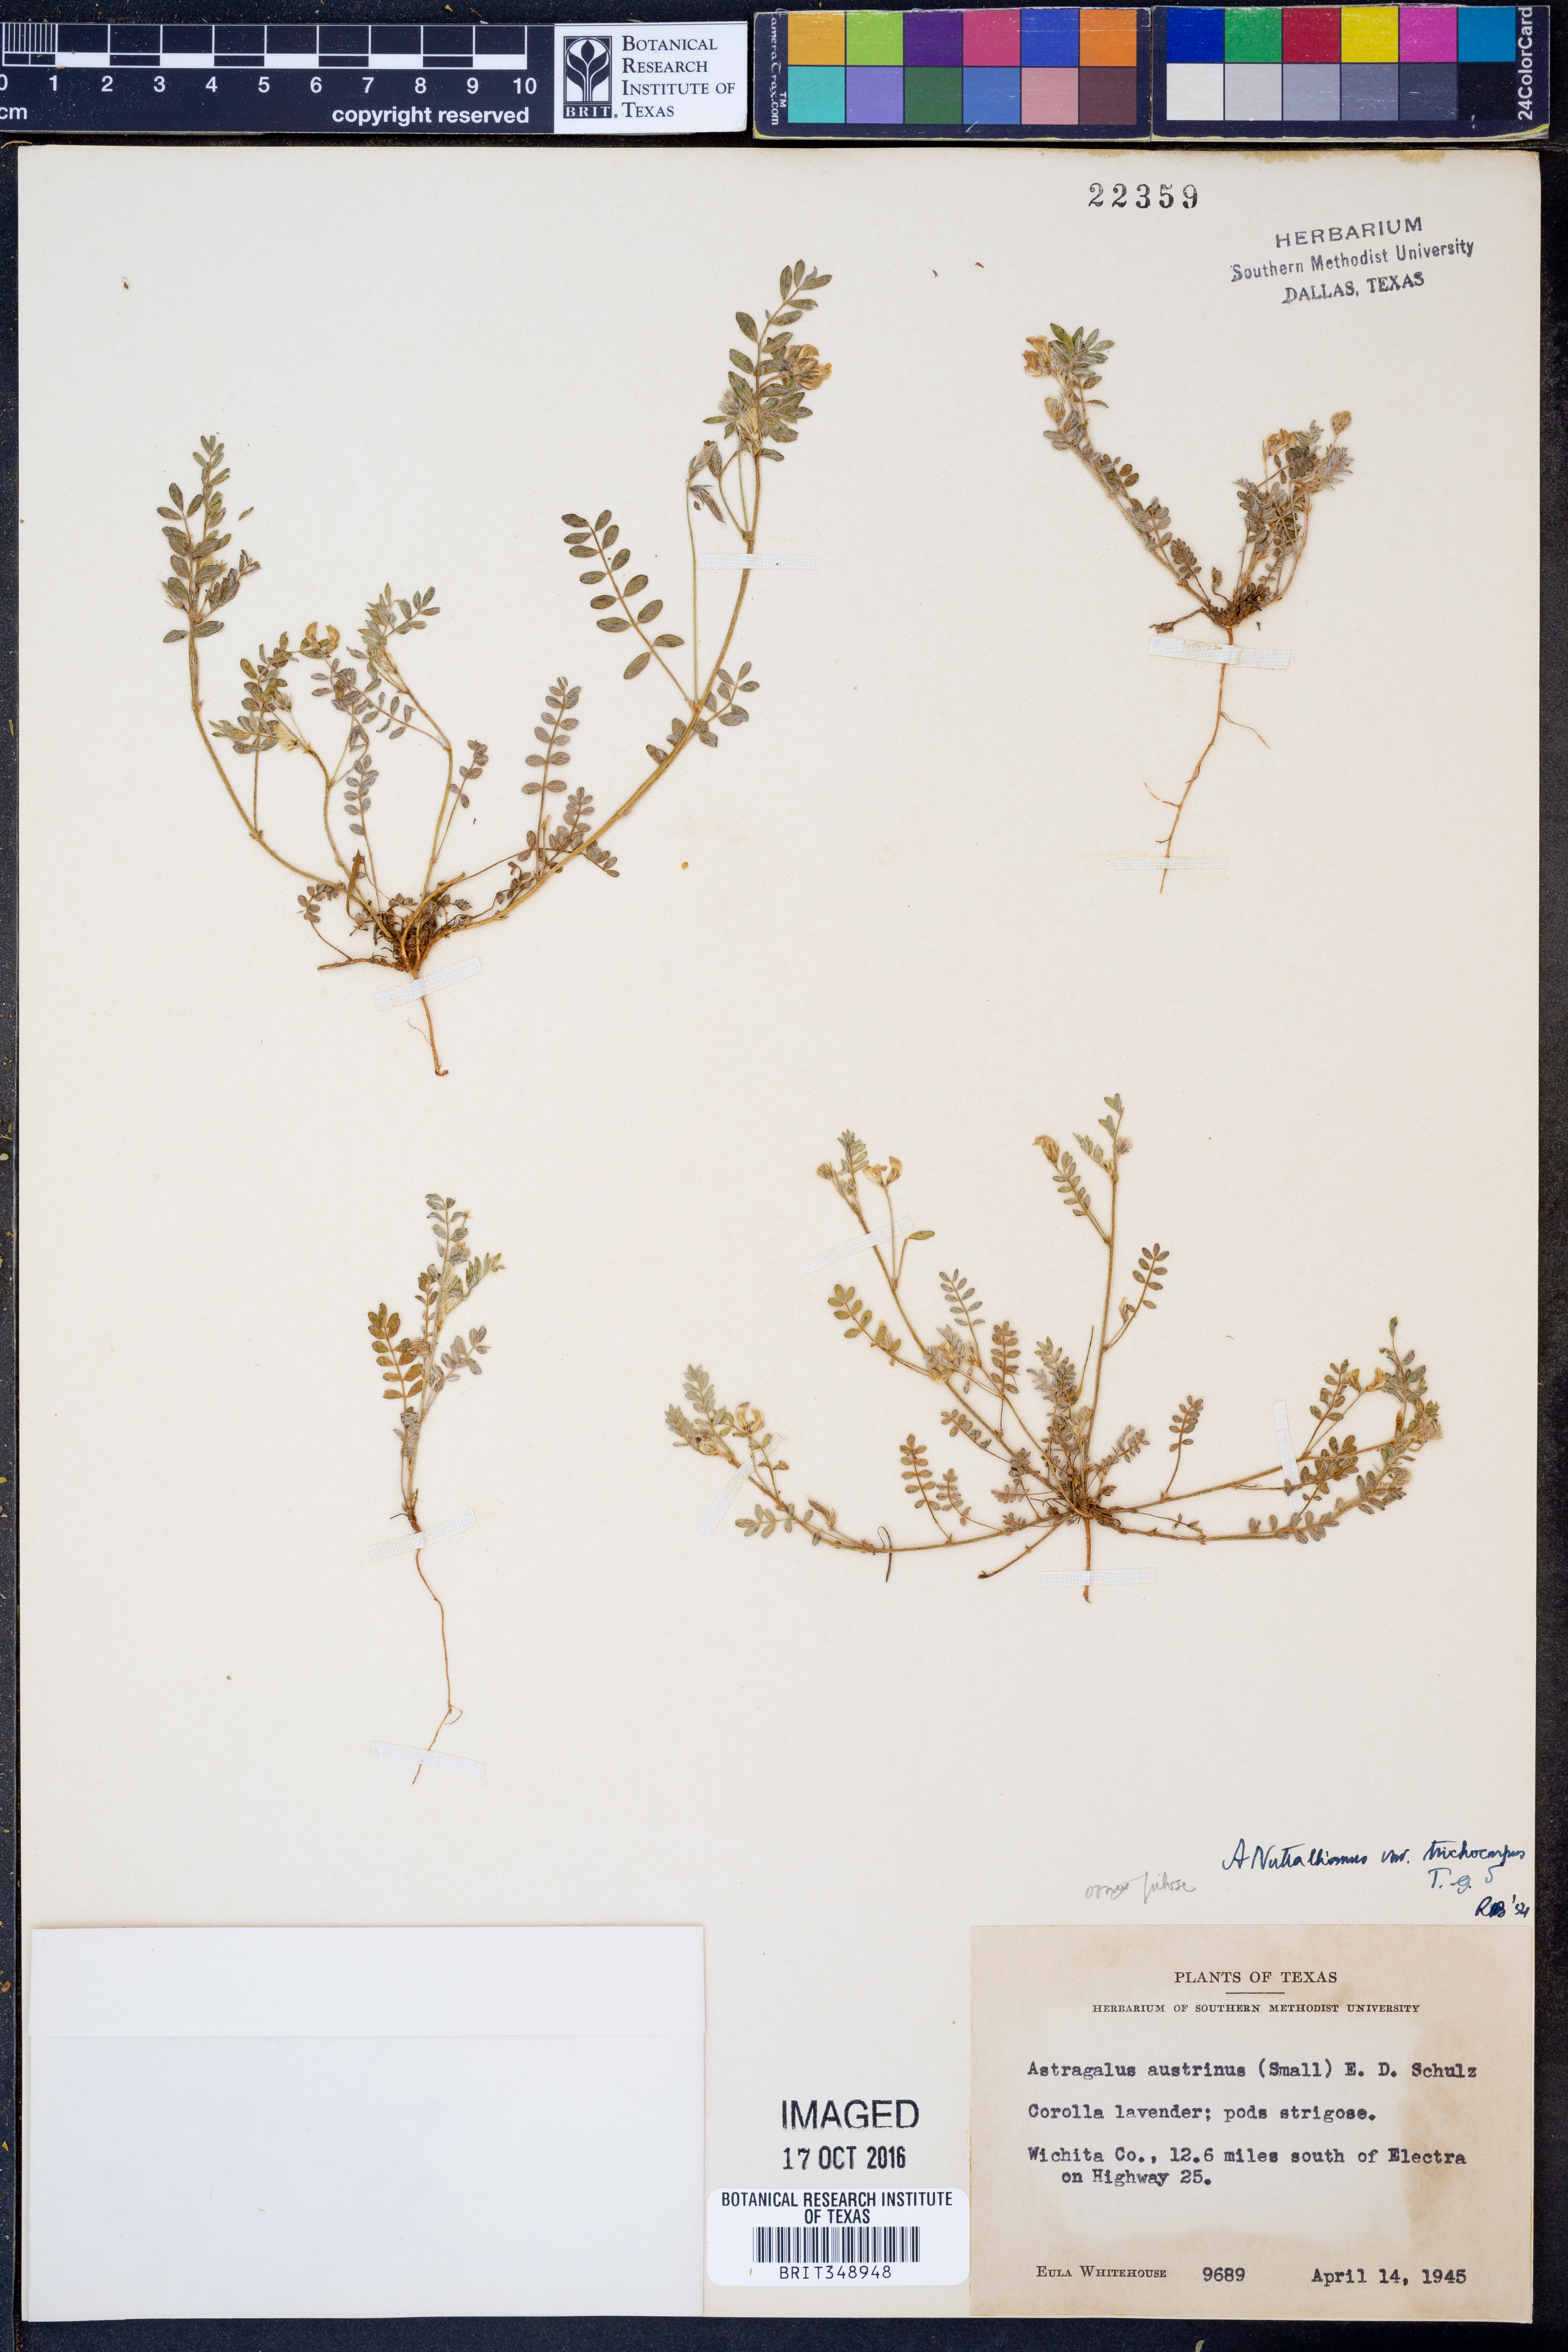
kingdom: Plantae
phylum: Tracheophyta
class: Magnoliopsida
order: Fabales
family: Fabaceae
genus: Astragalus
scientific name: Astragalus nuttallianus
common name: Smallflowered milkvetch
